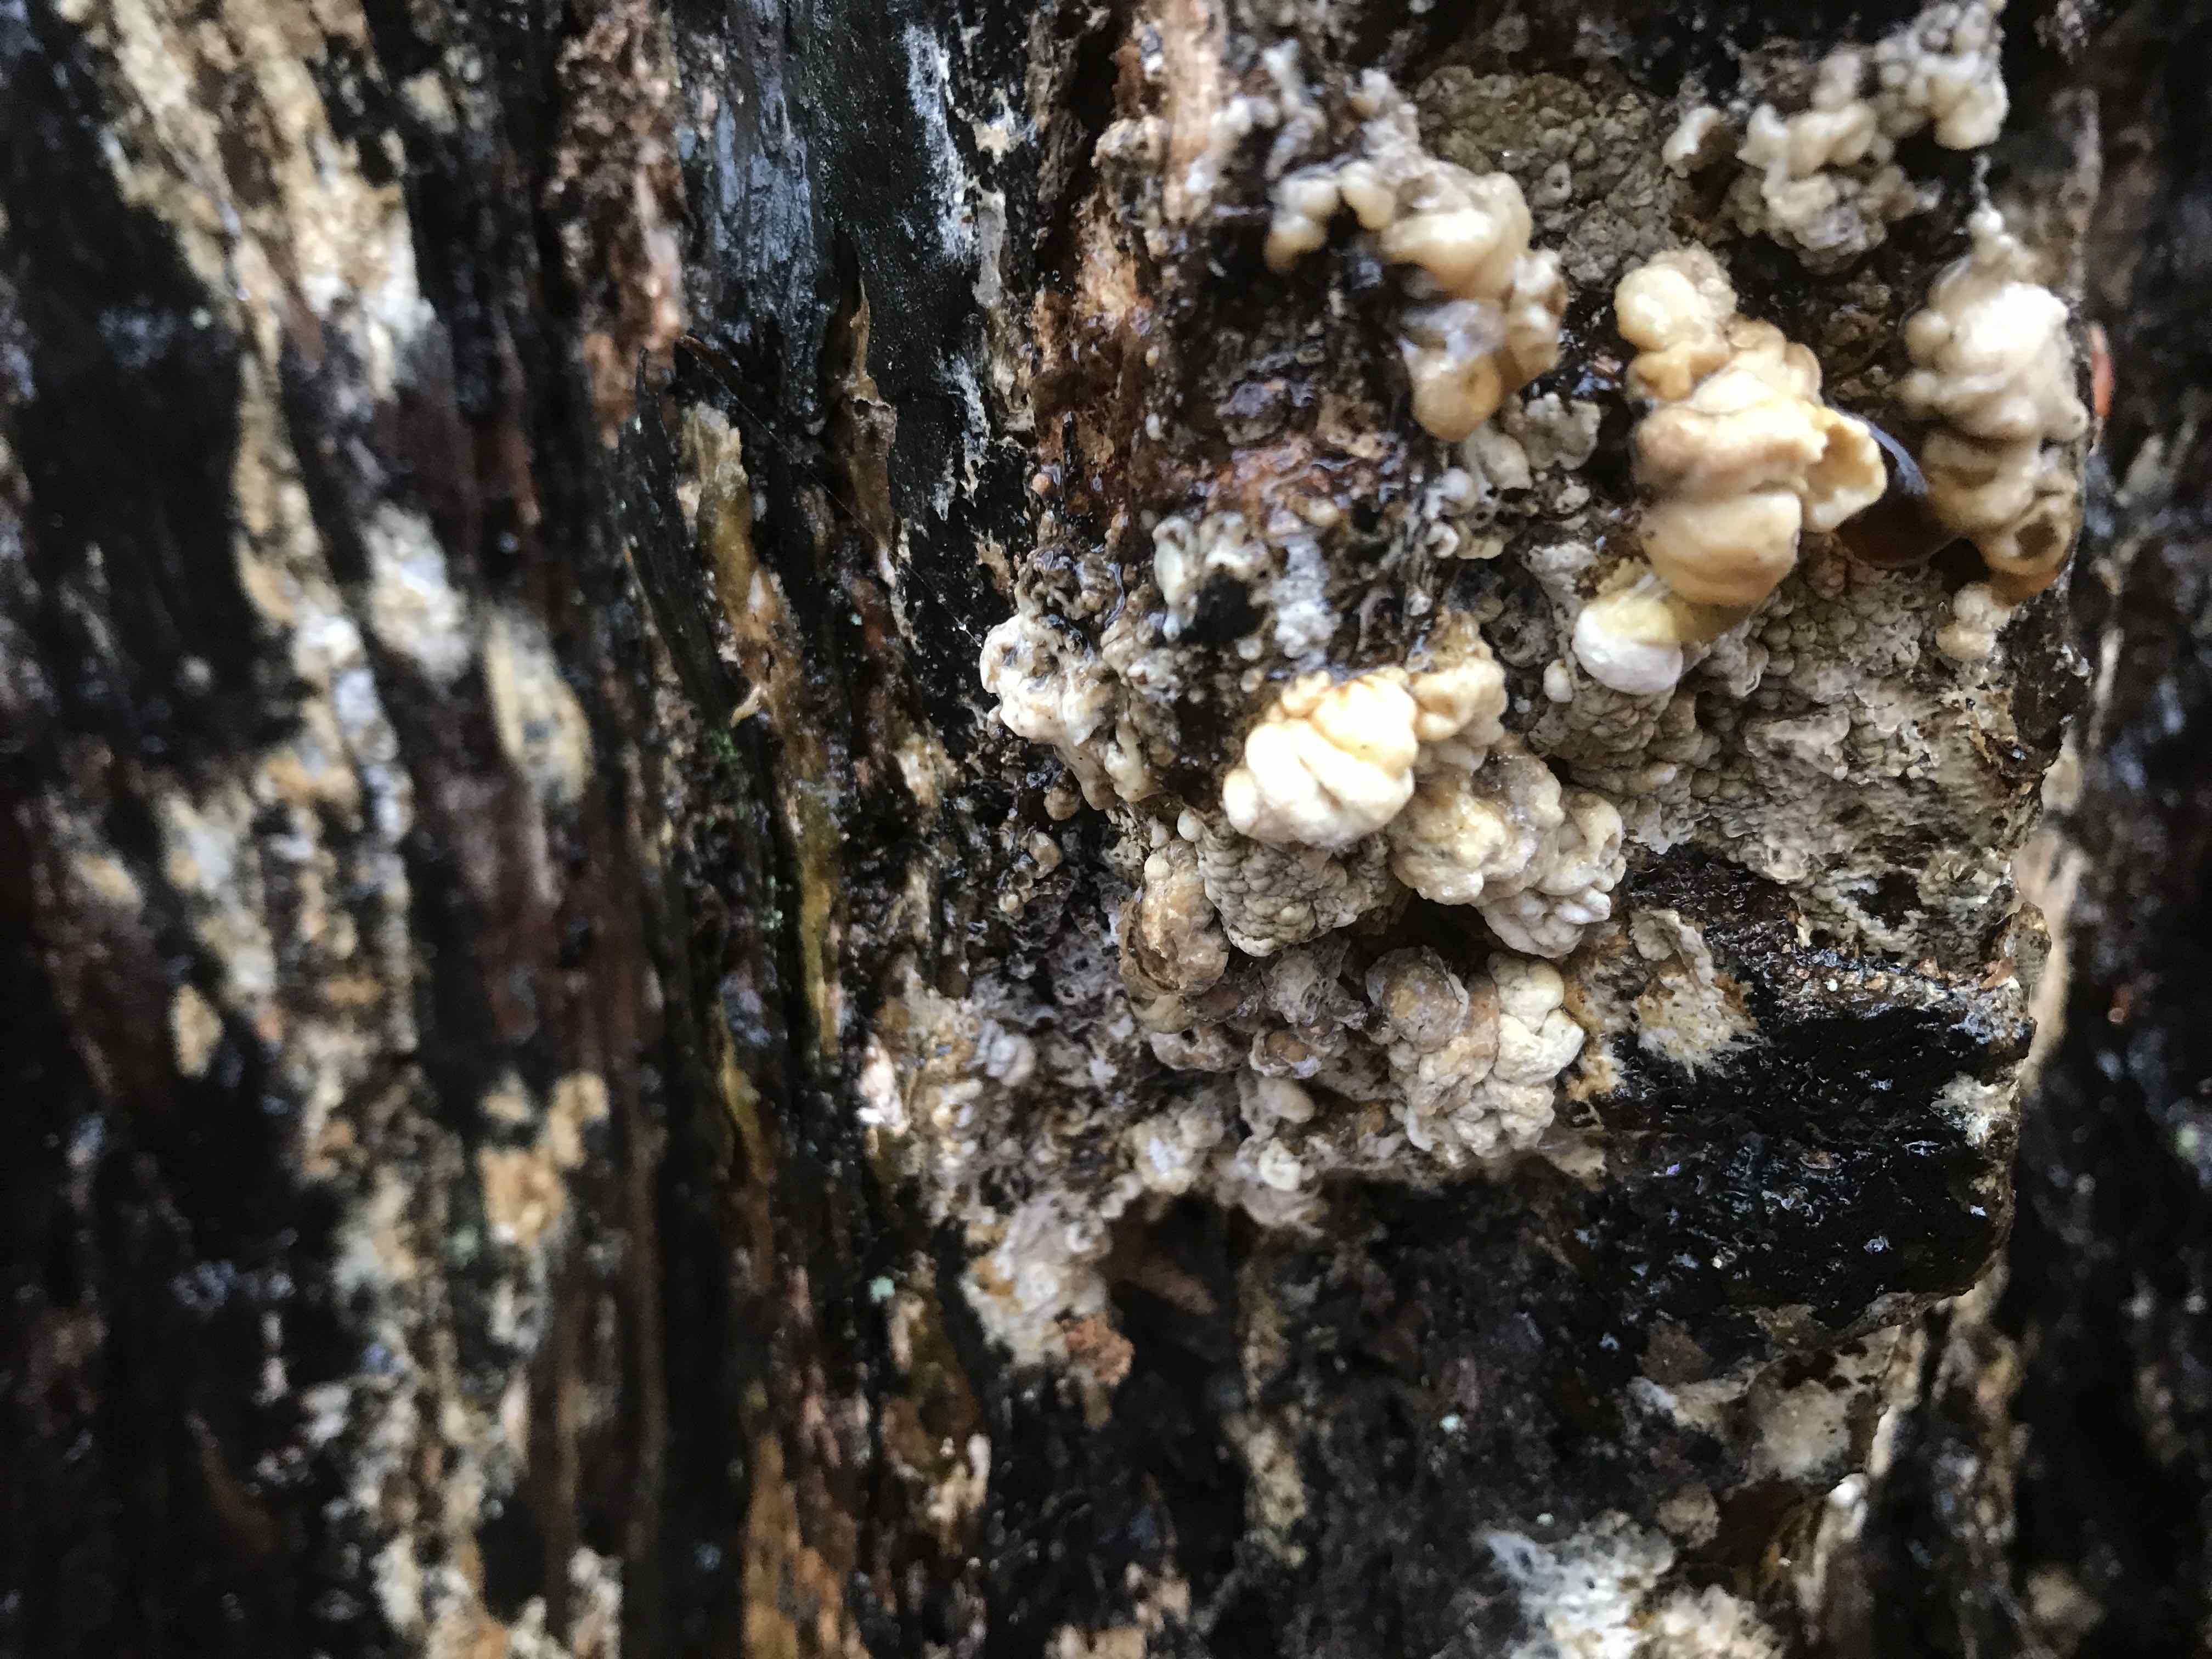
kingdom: Fungi
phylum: Ascomycota
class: Sordariomycetes
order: Xylariales
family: Hypoxylaceae
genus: Nodulisporium
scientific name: Nodulisporium cecidiogenes
